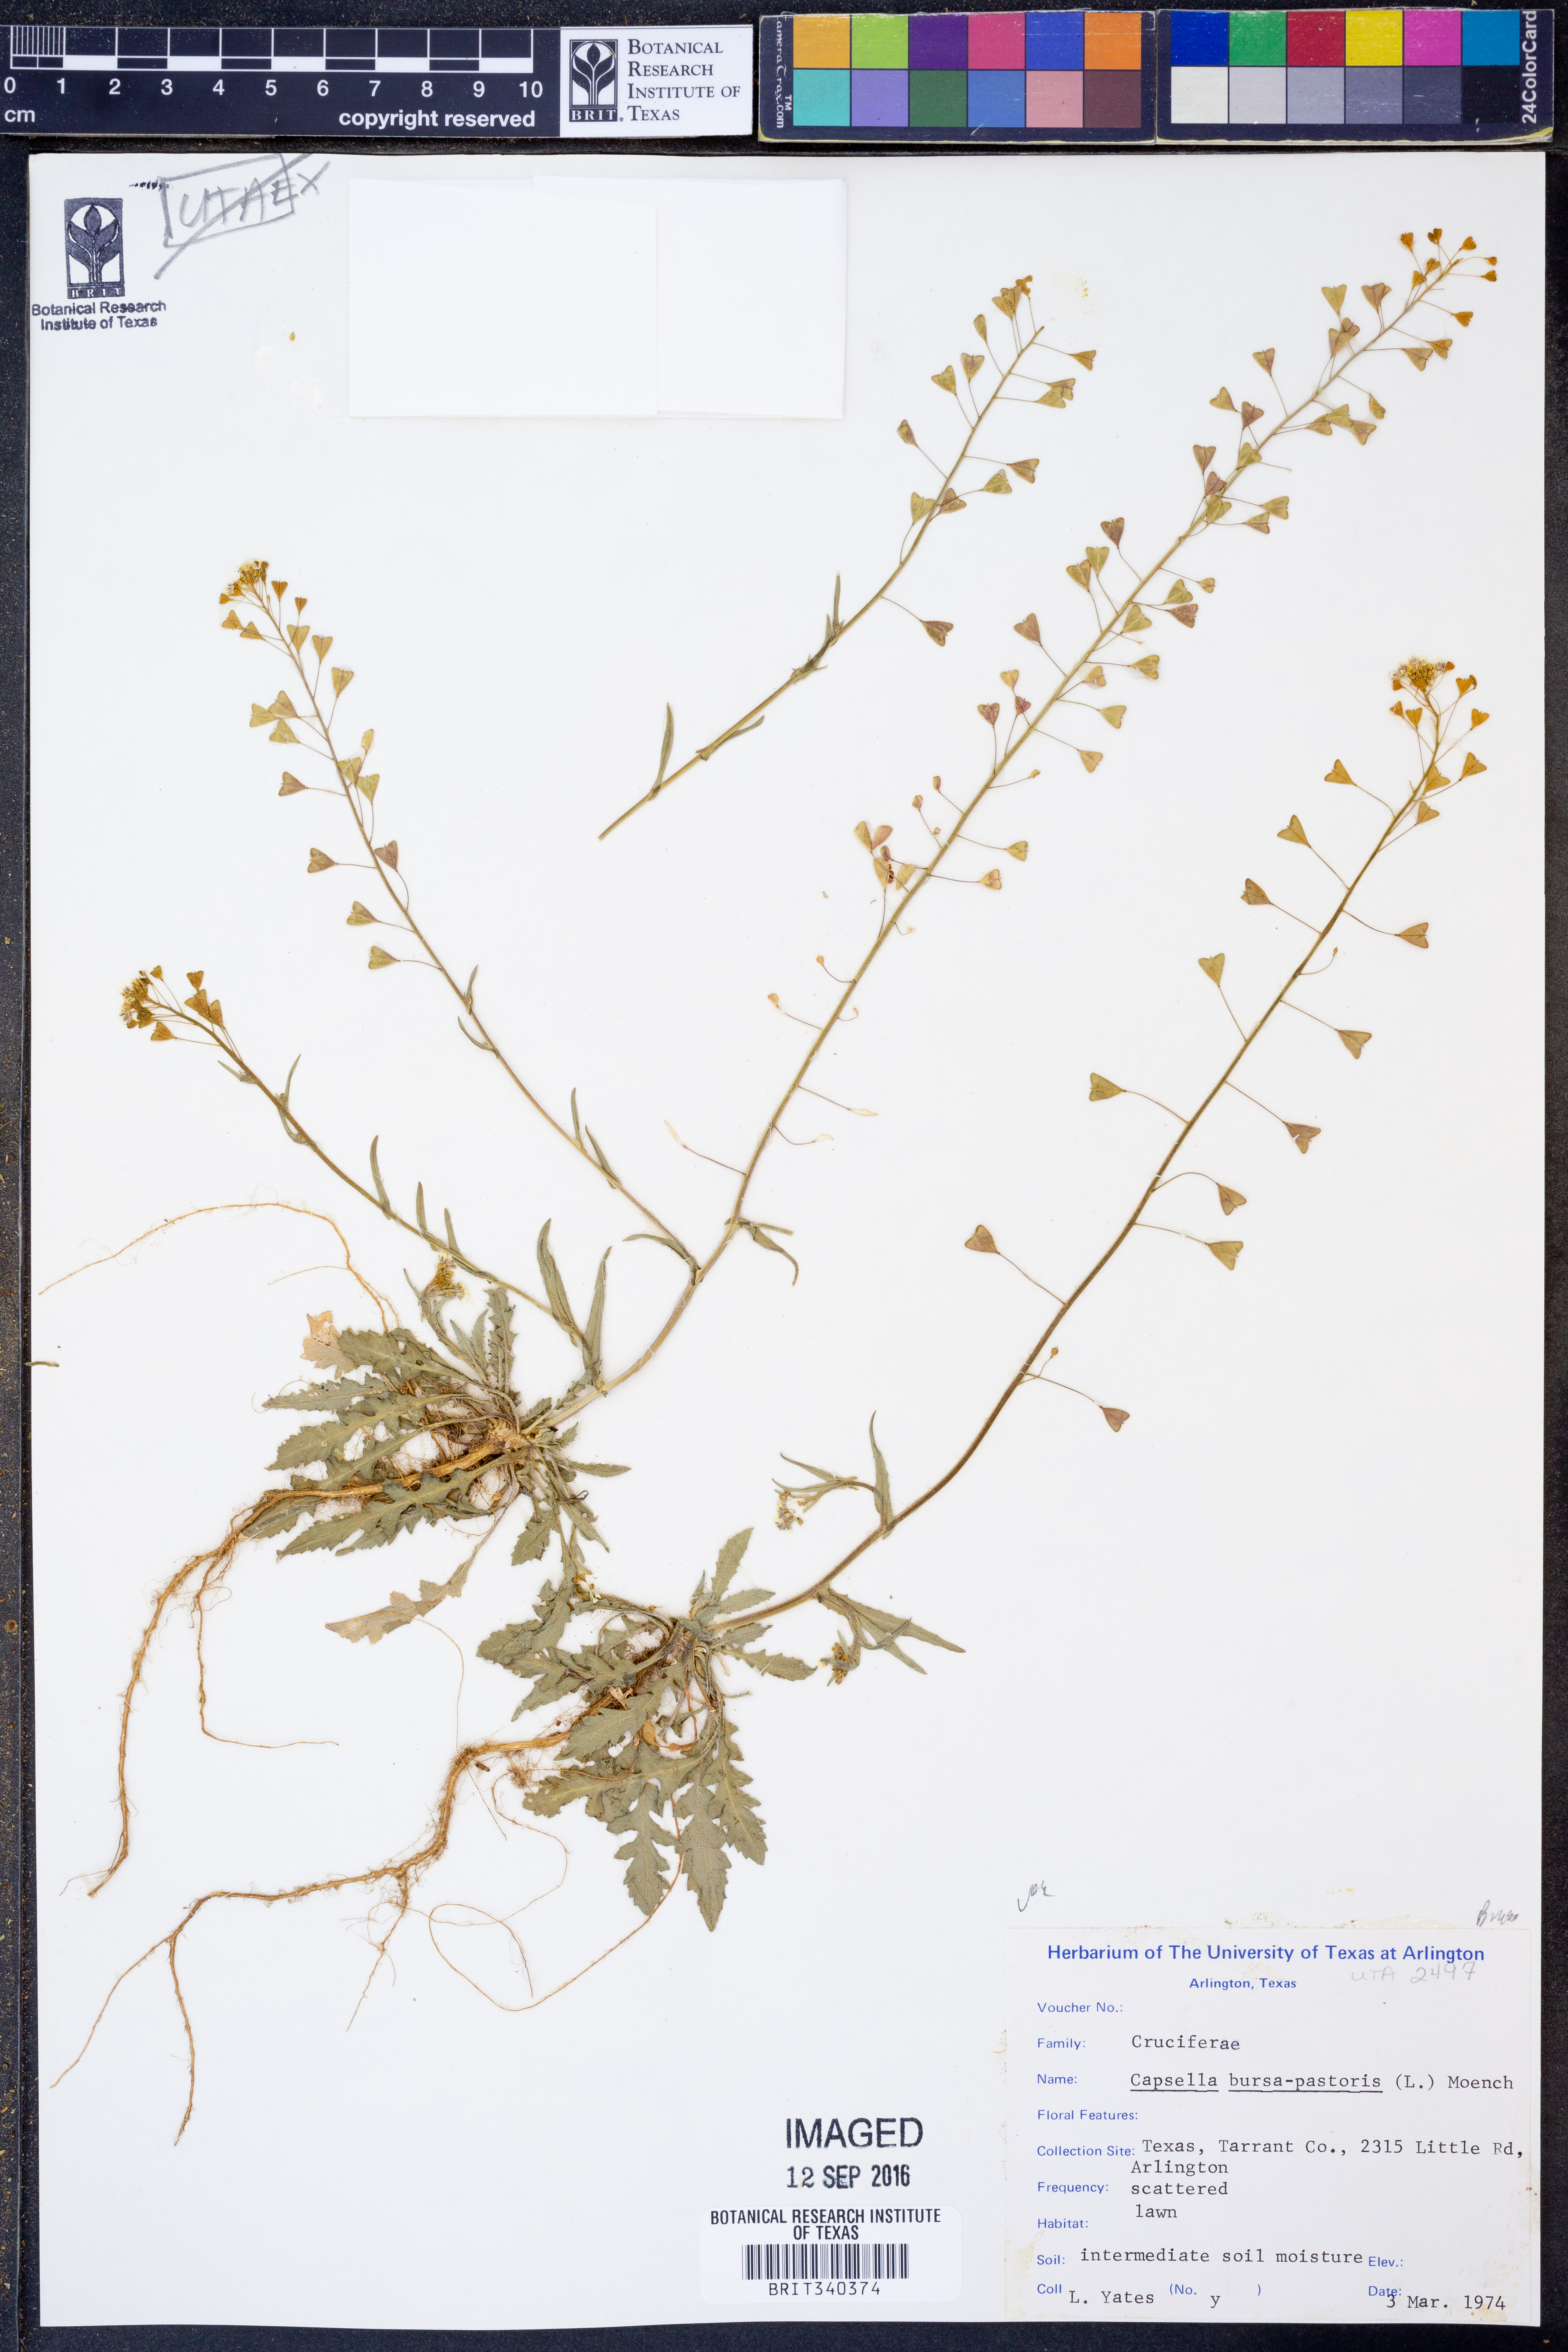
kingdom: Plantae
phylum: Tracheophyta
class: Magnoliopsida
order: Brassicales
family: Brassicaceae
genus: Capsella
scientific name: Capsella bursa-pastoris
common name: Shepherd's purse
